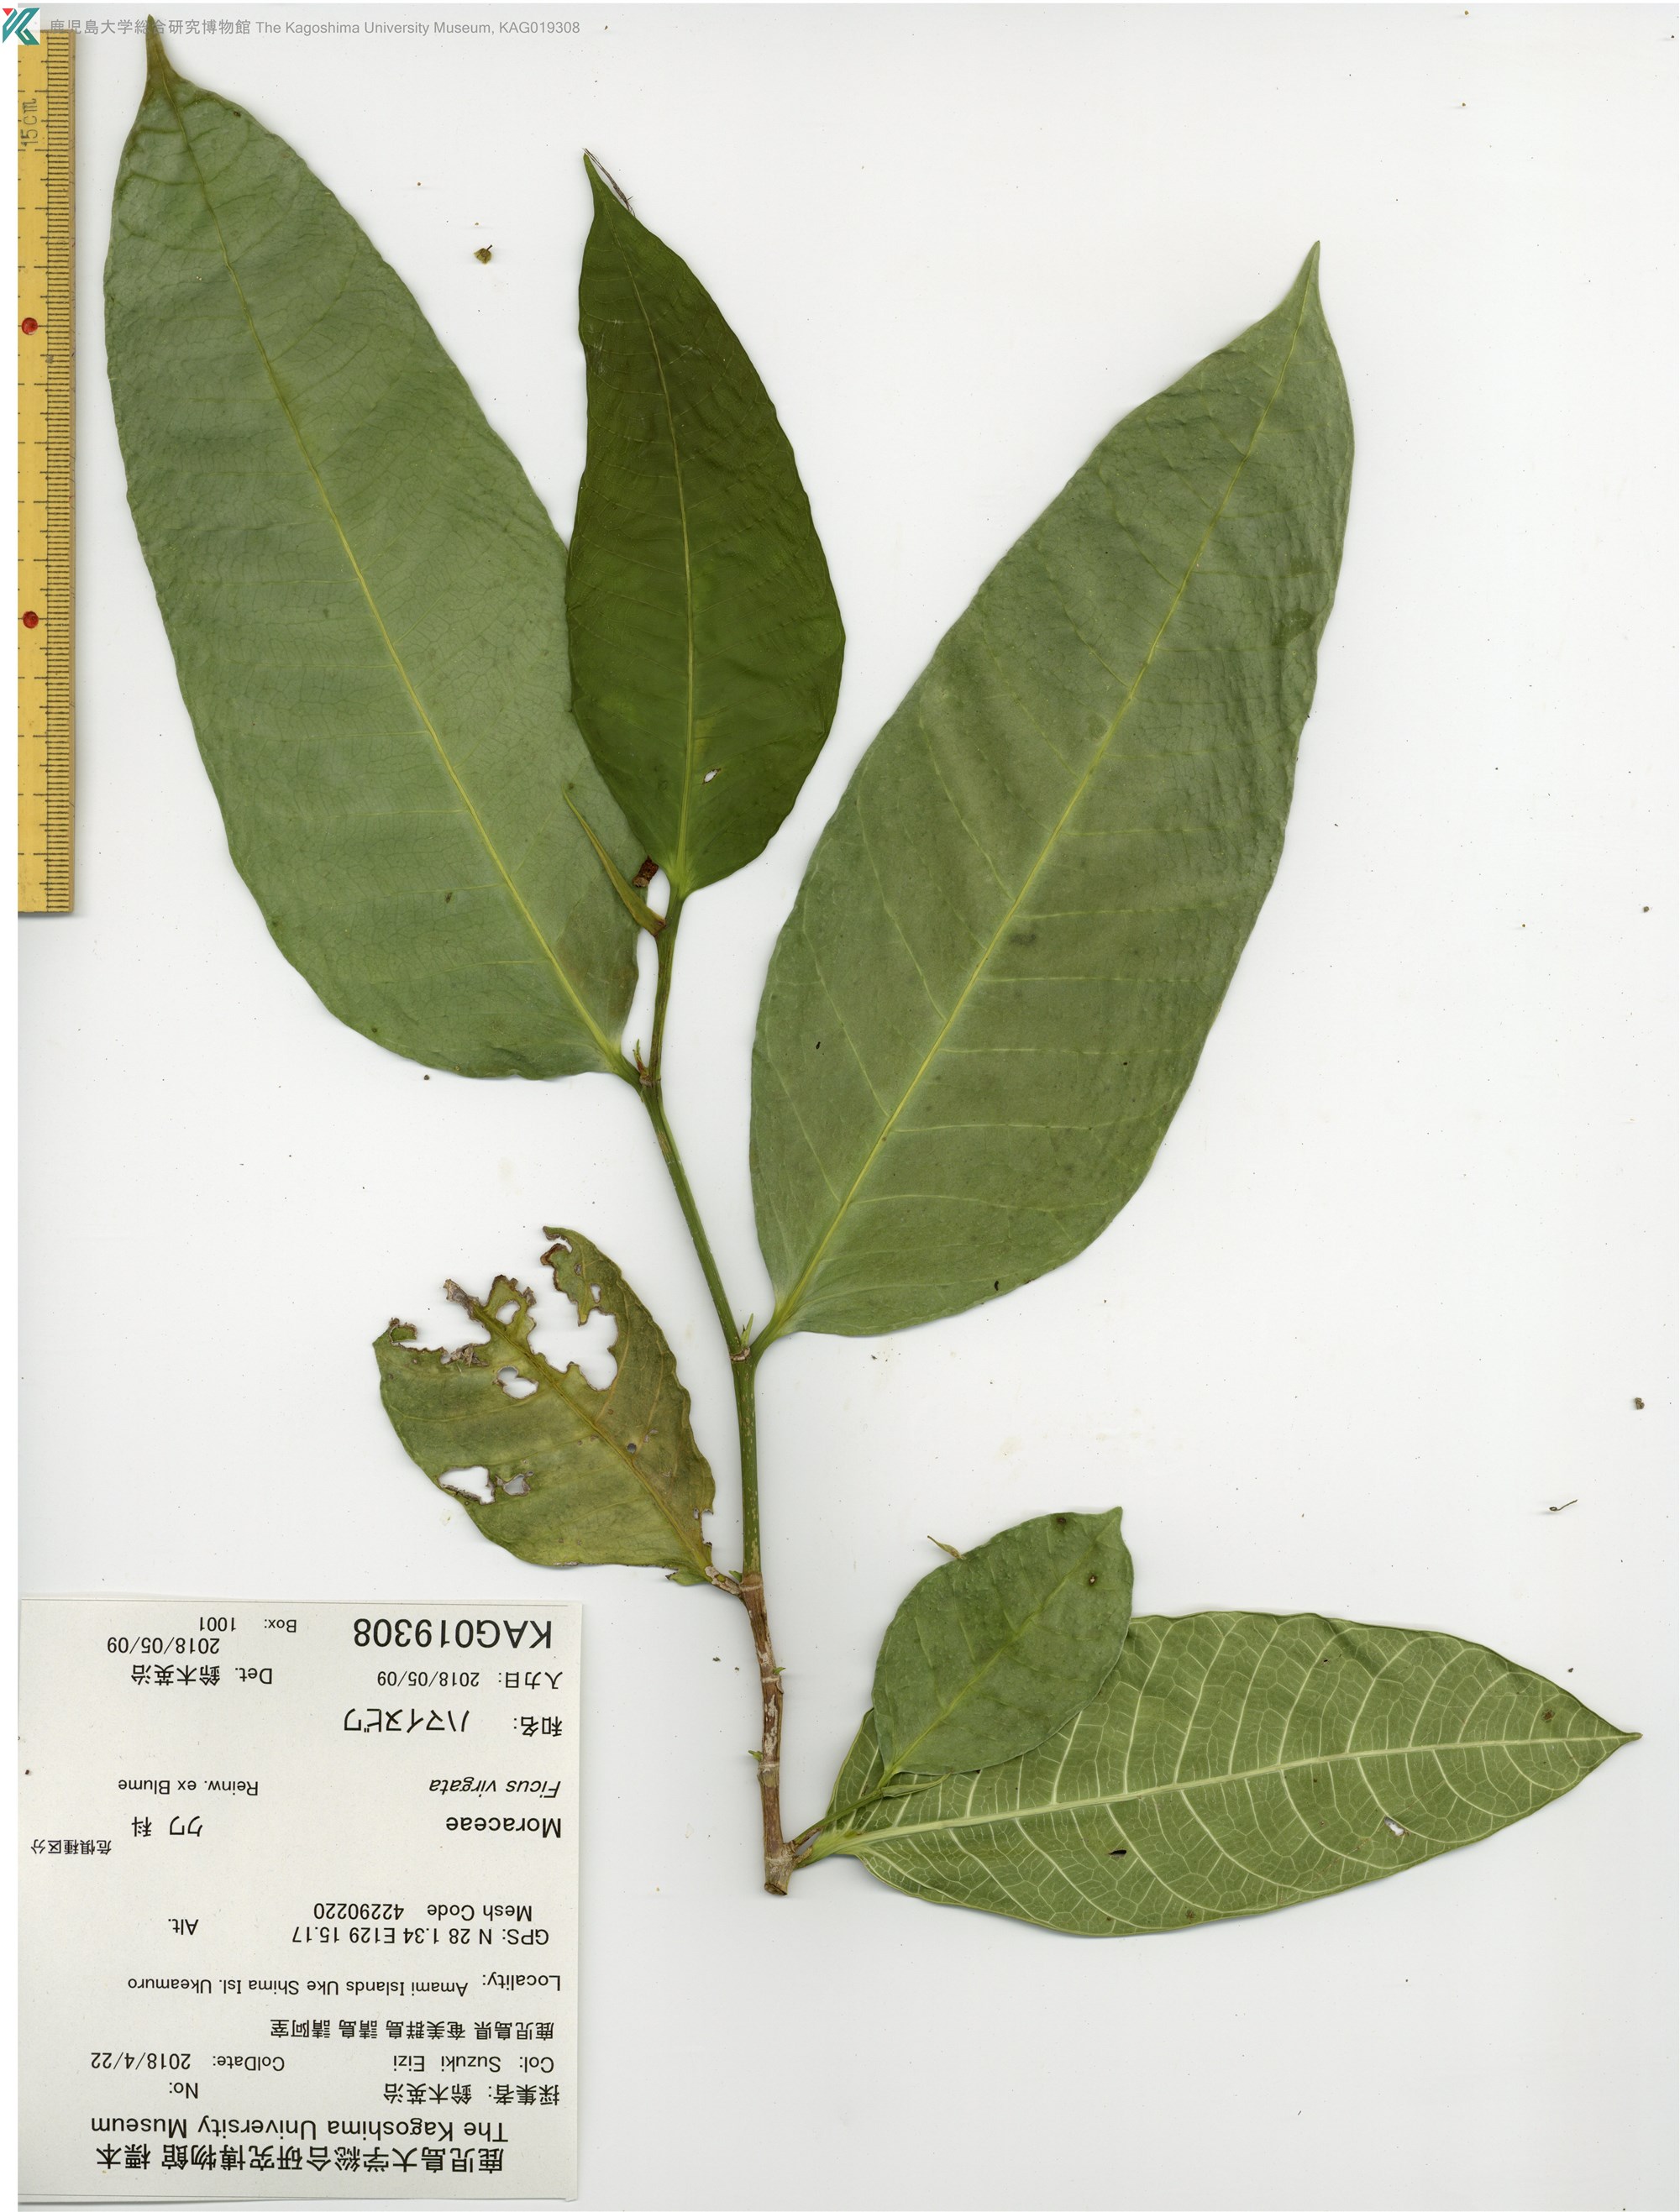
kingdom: Plantae
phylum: Tracheophyta
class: Magnoliopsida
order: Rosales
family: Moraceae
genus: Ficus
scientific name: Ficus virgata
